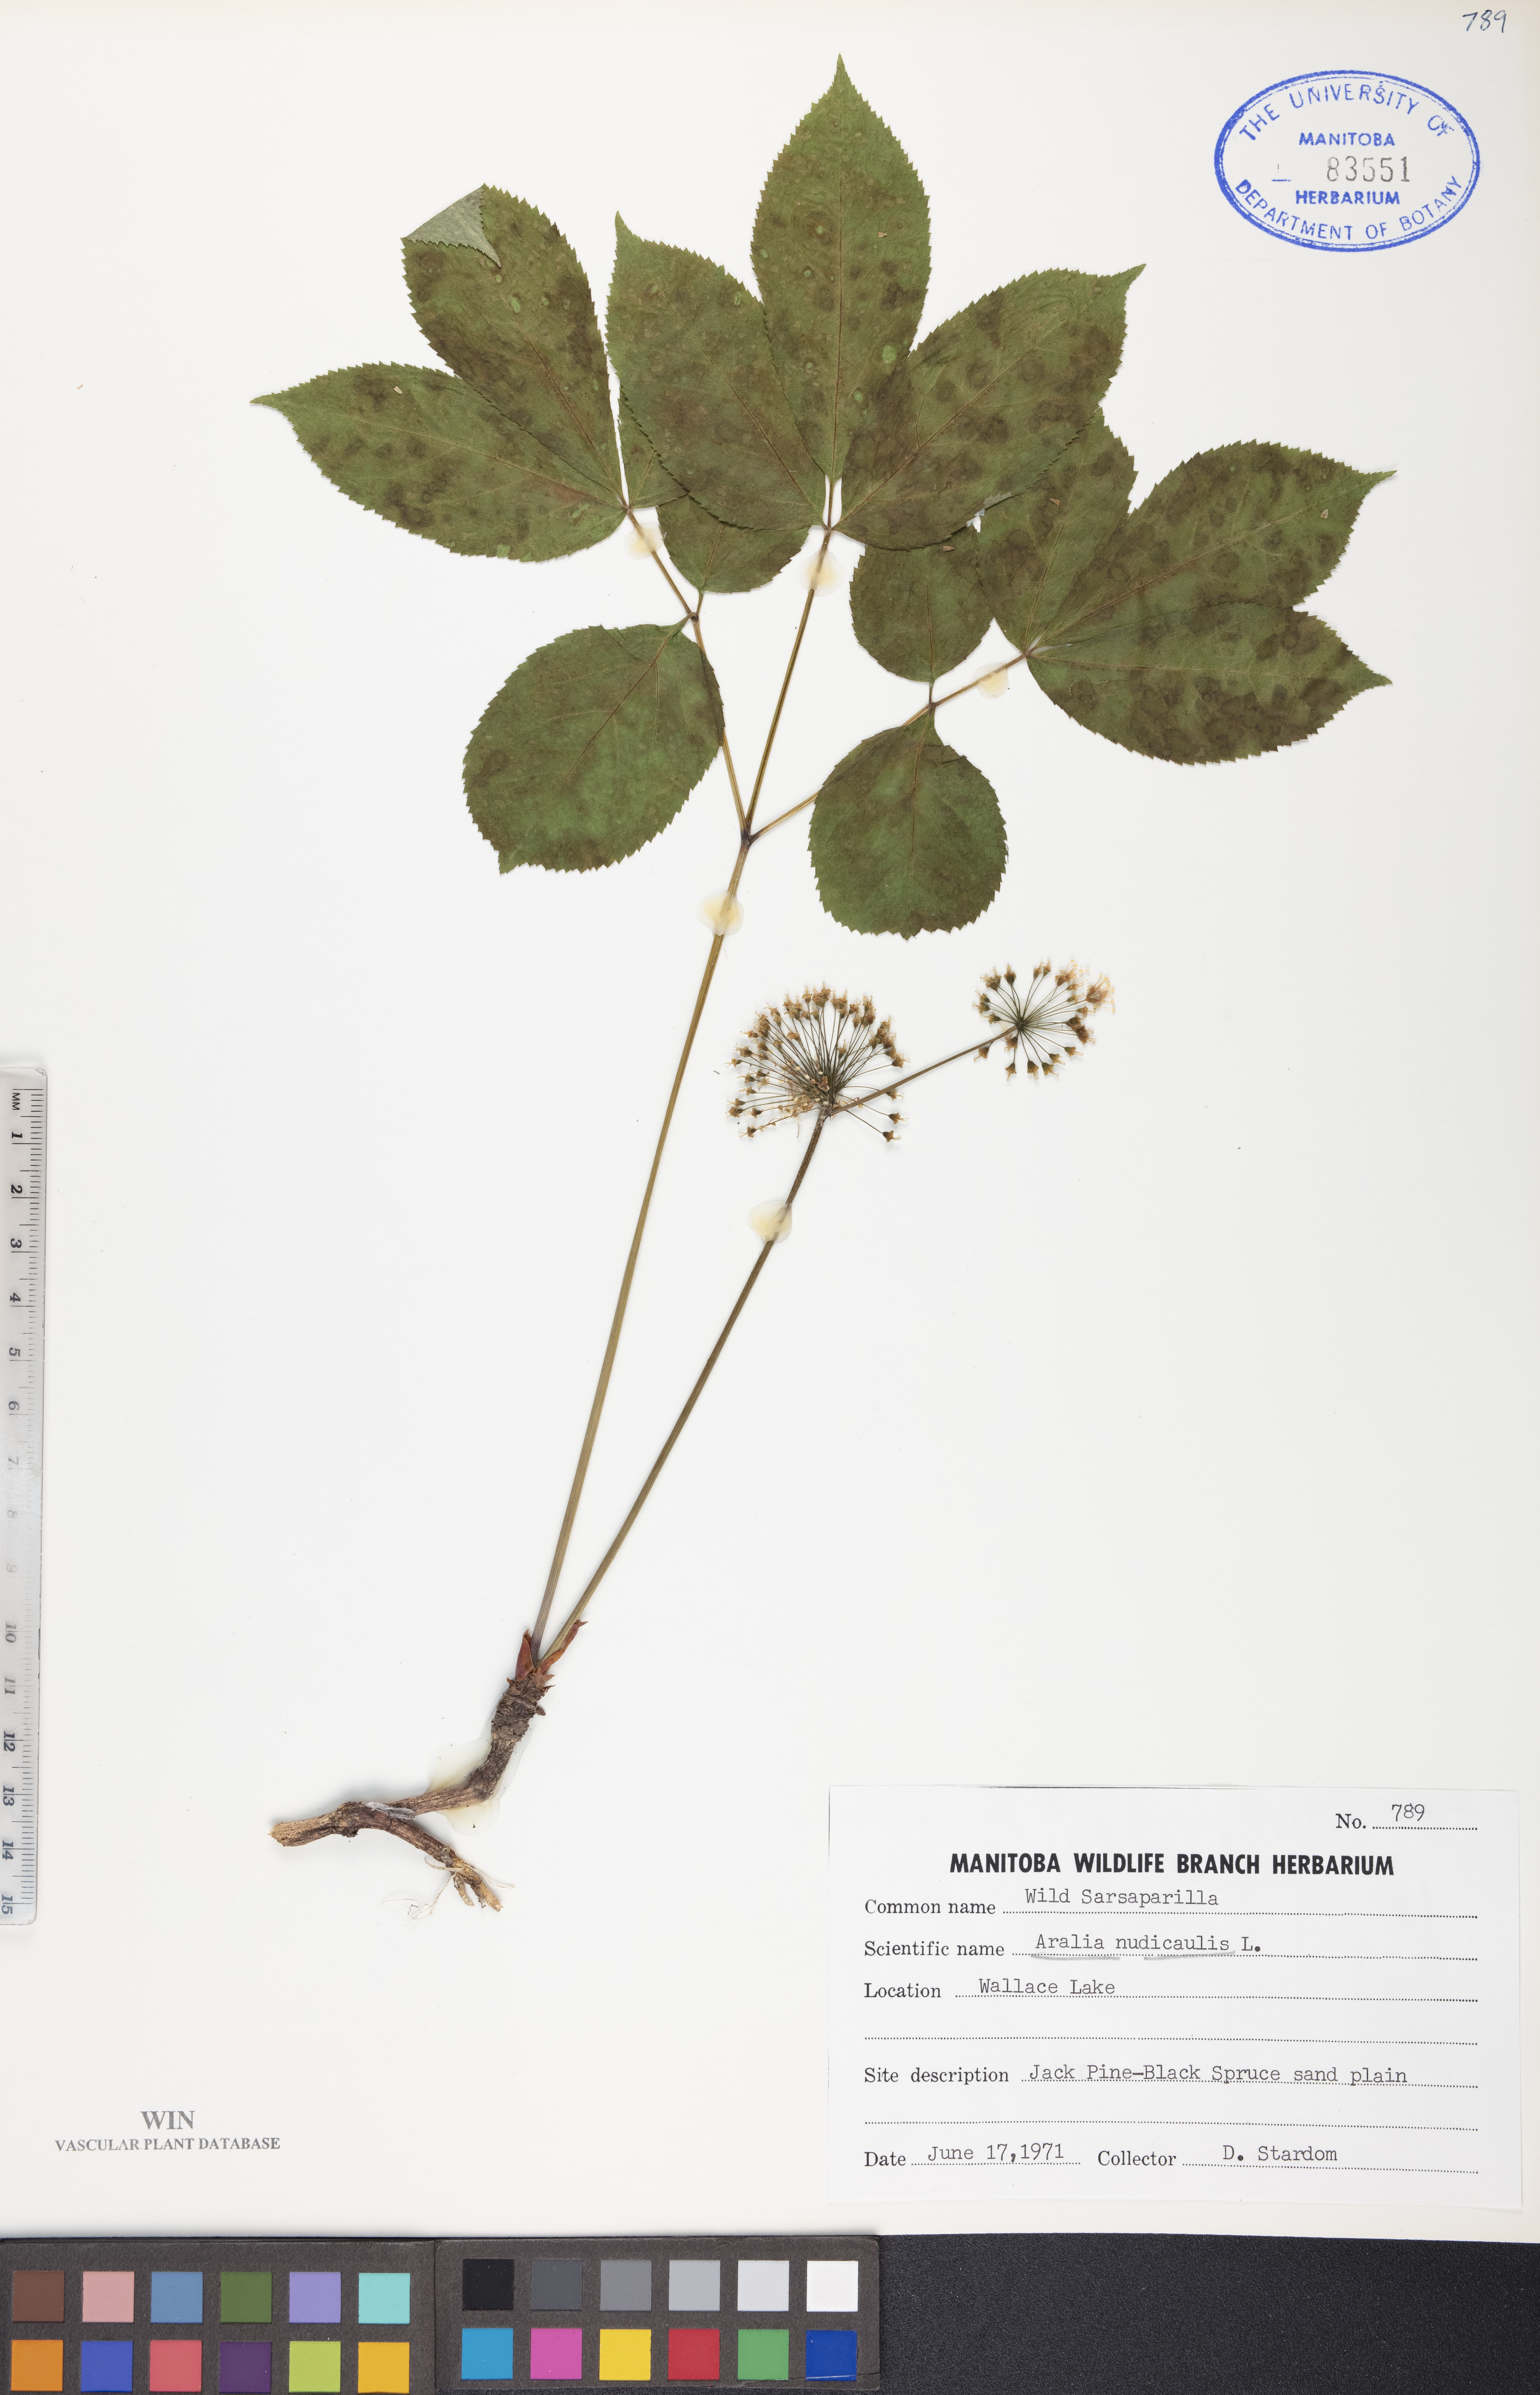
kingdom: Plantae
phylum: Tracheophyta
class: Magnoliopsida
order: Apiales
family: Araliaceae
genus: Aralia
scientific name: Aralia nudicaulis
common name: Wild sarsaparilla
